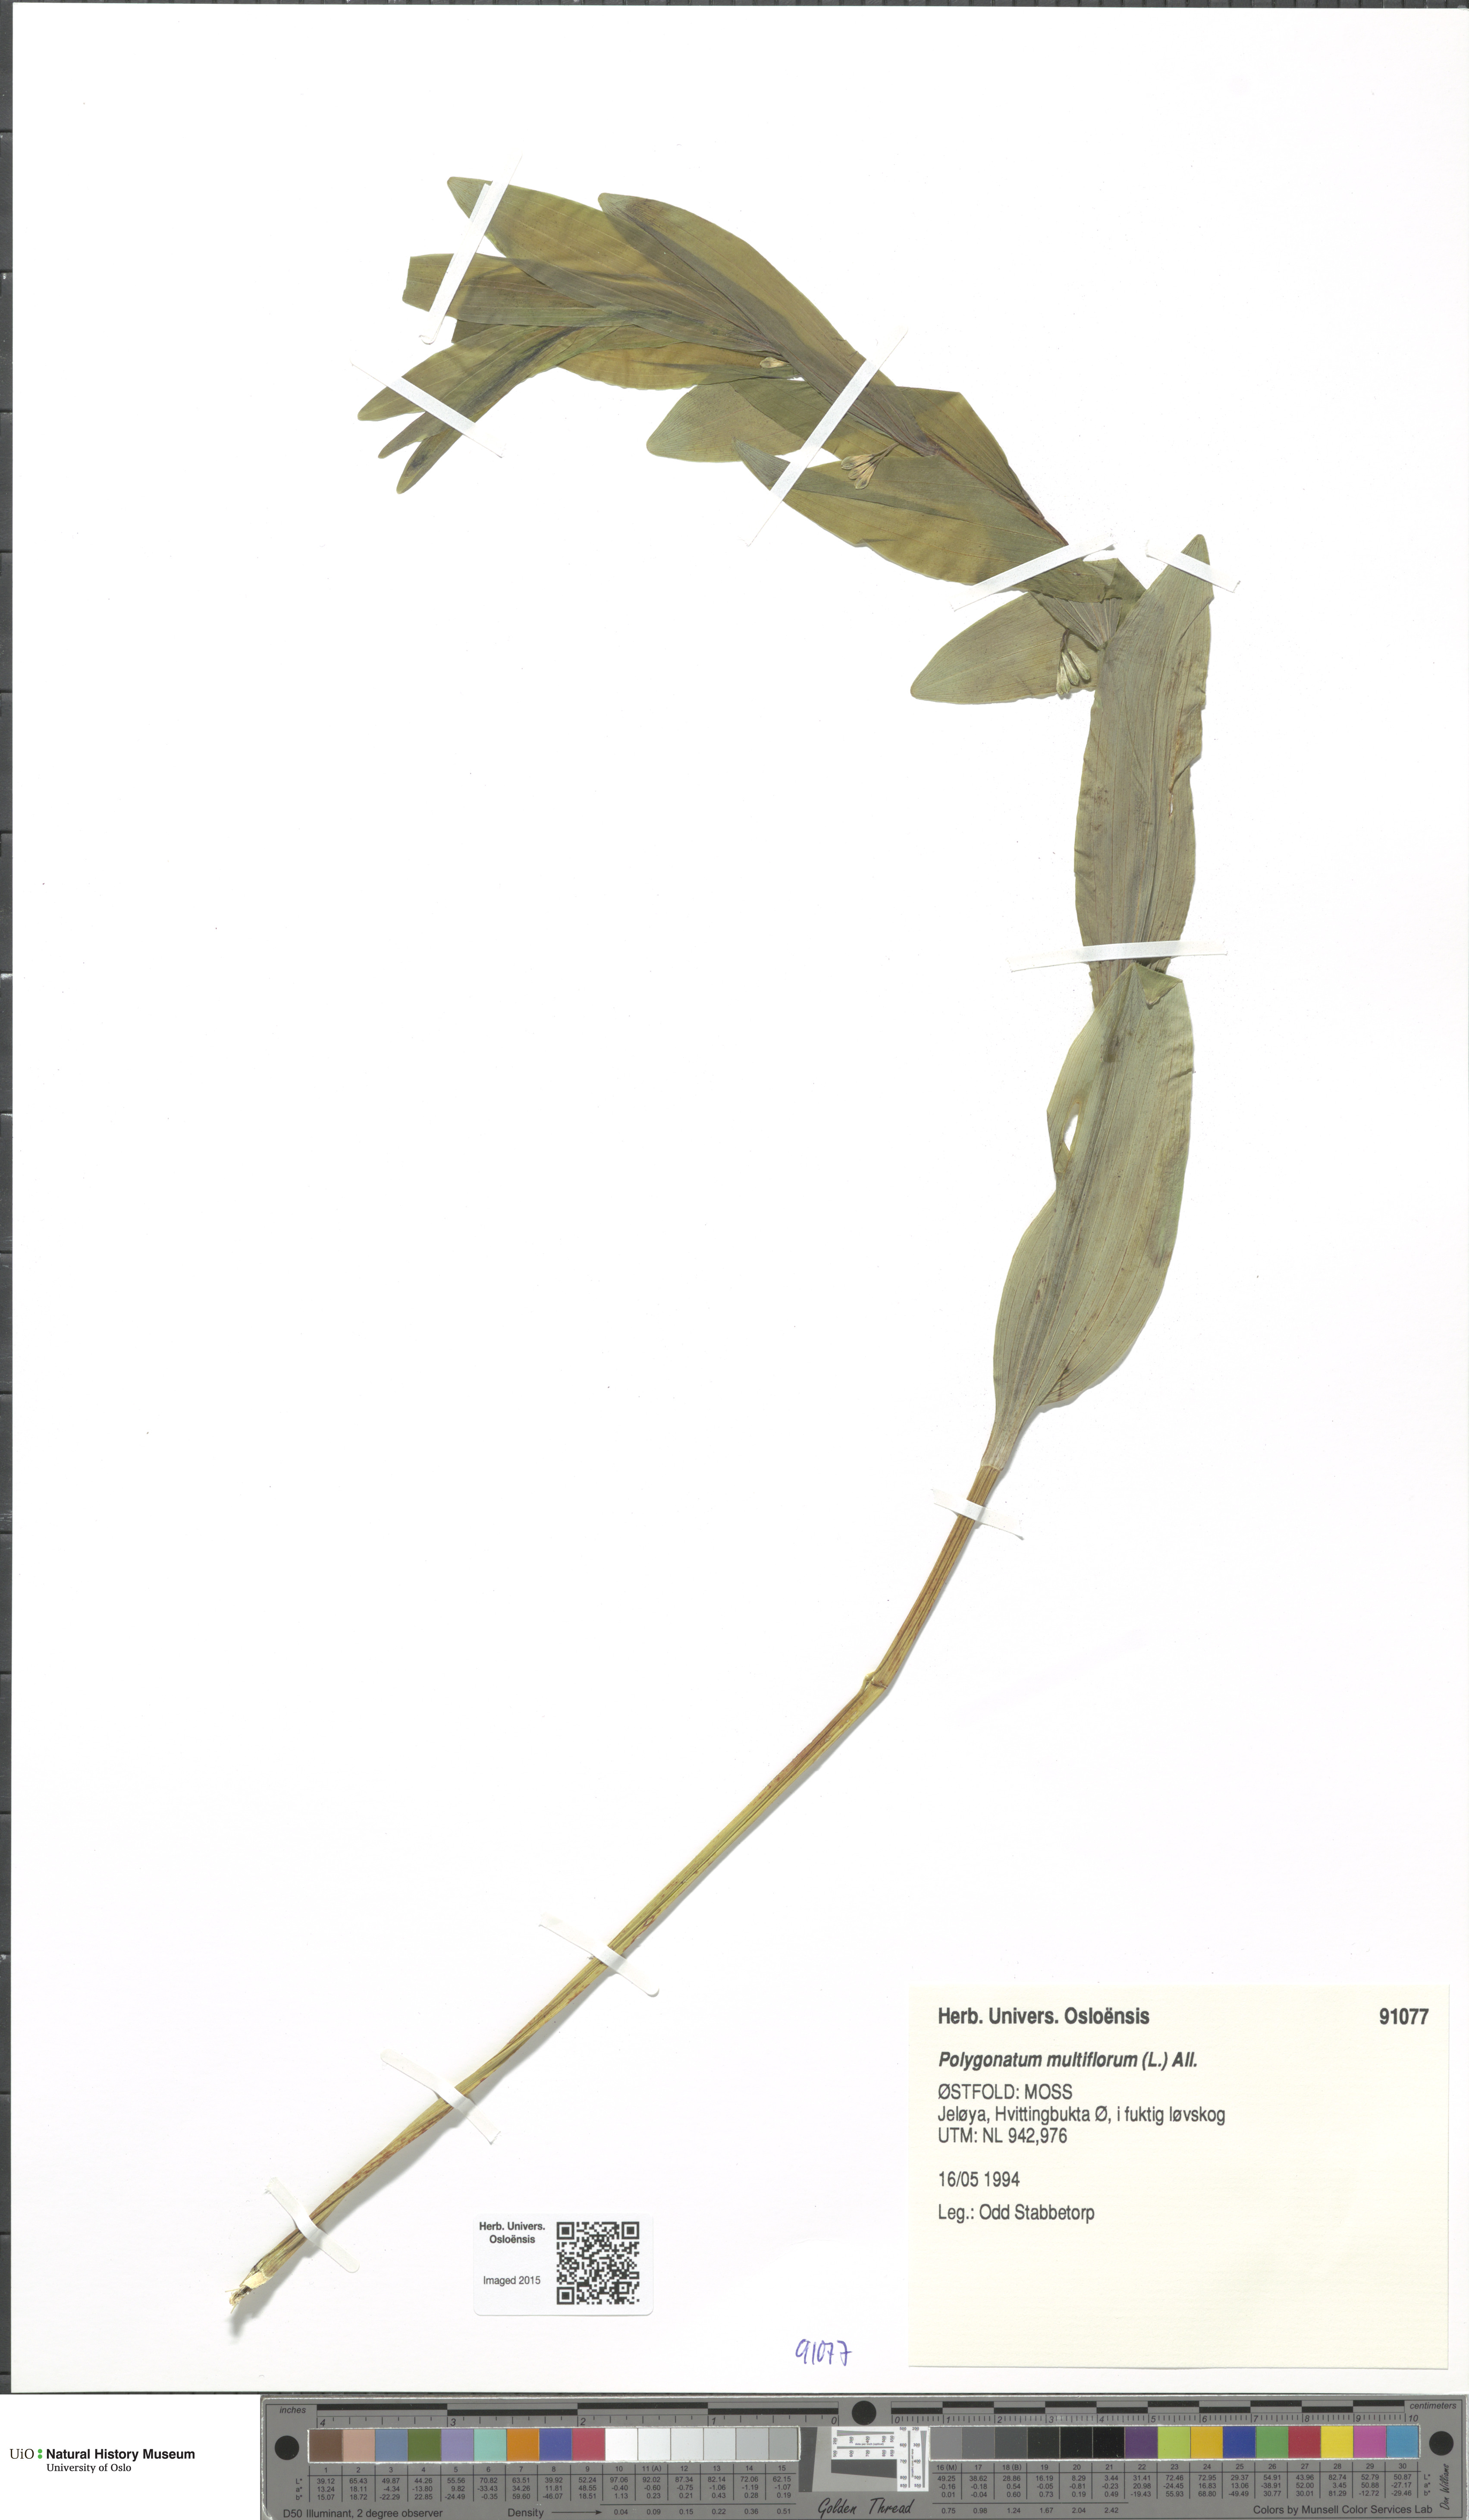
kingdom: Plantae
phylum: Tracheophyta
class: Liliopsida
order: Asparagales
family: Asparagaceae
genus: Polygonatum
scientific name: Polygonatum multiflorum
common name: Solomon's-seal
